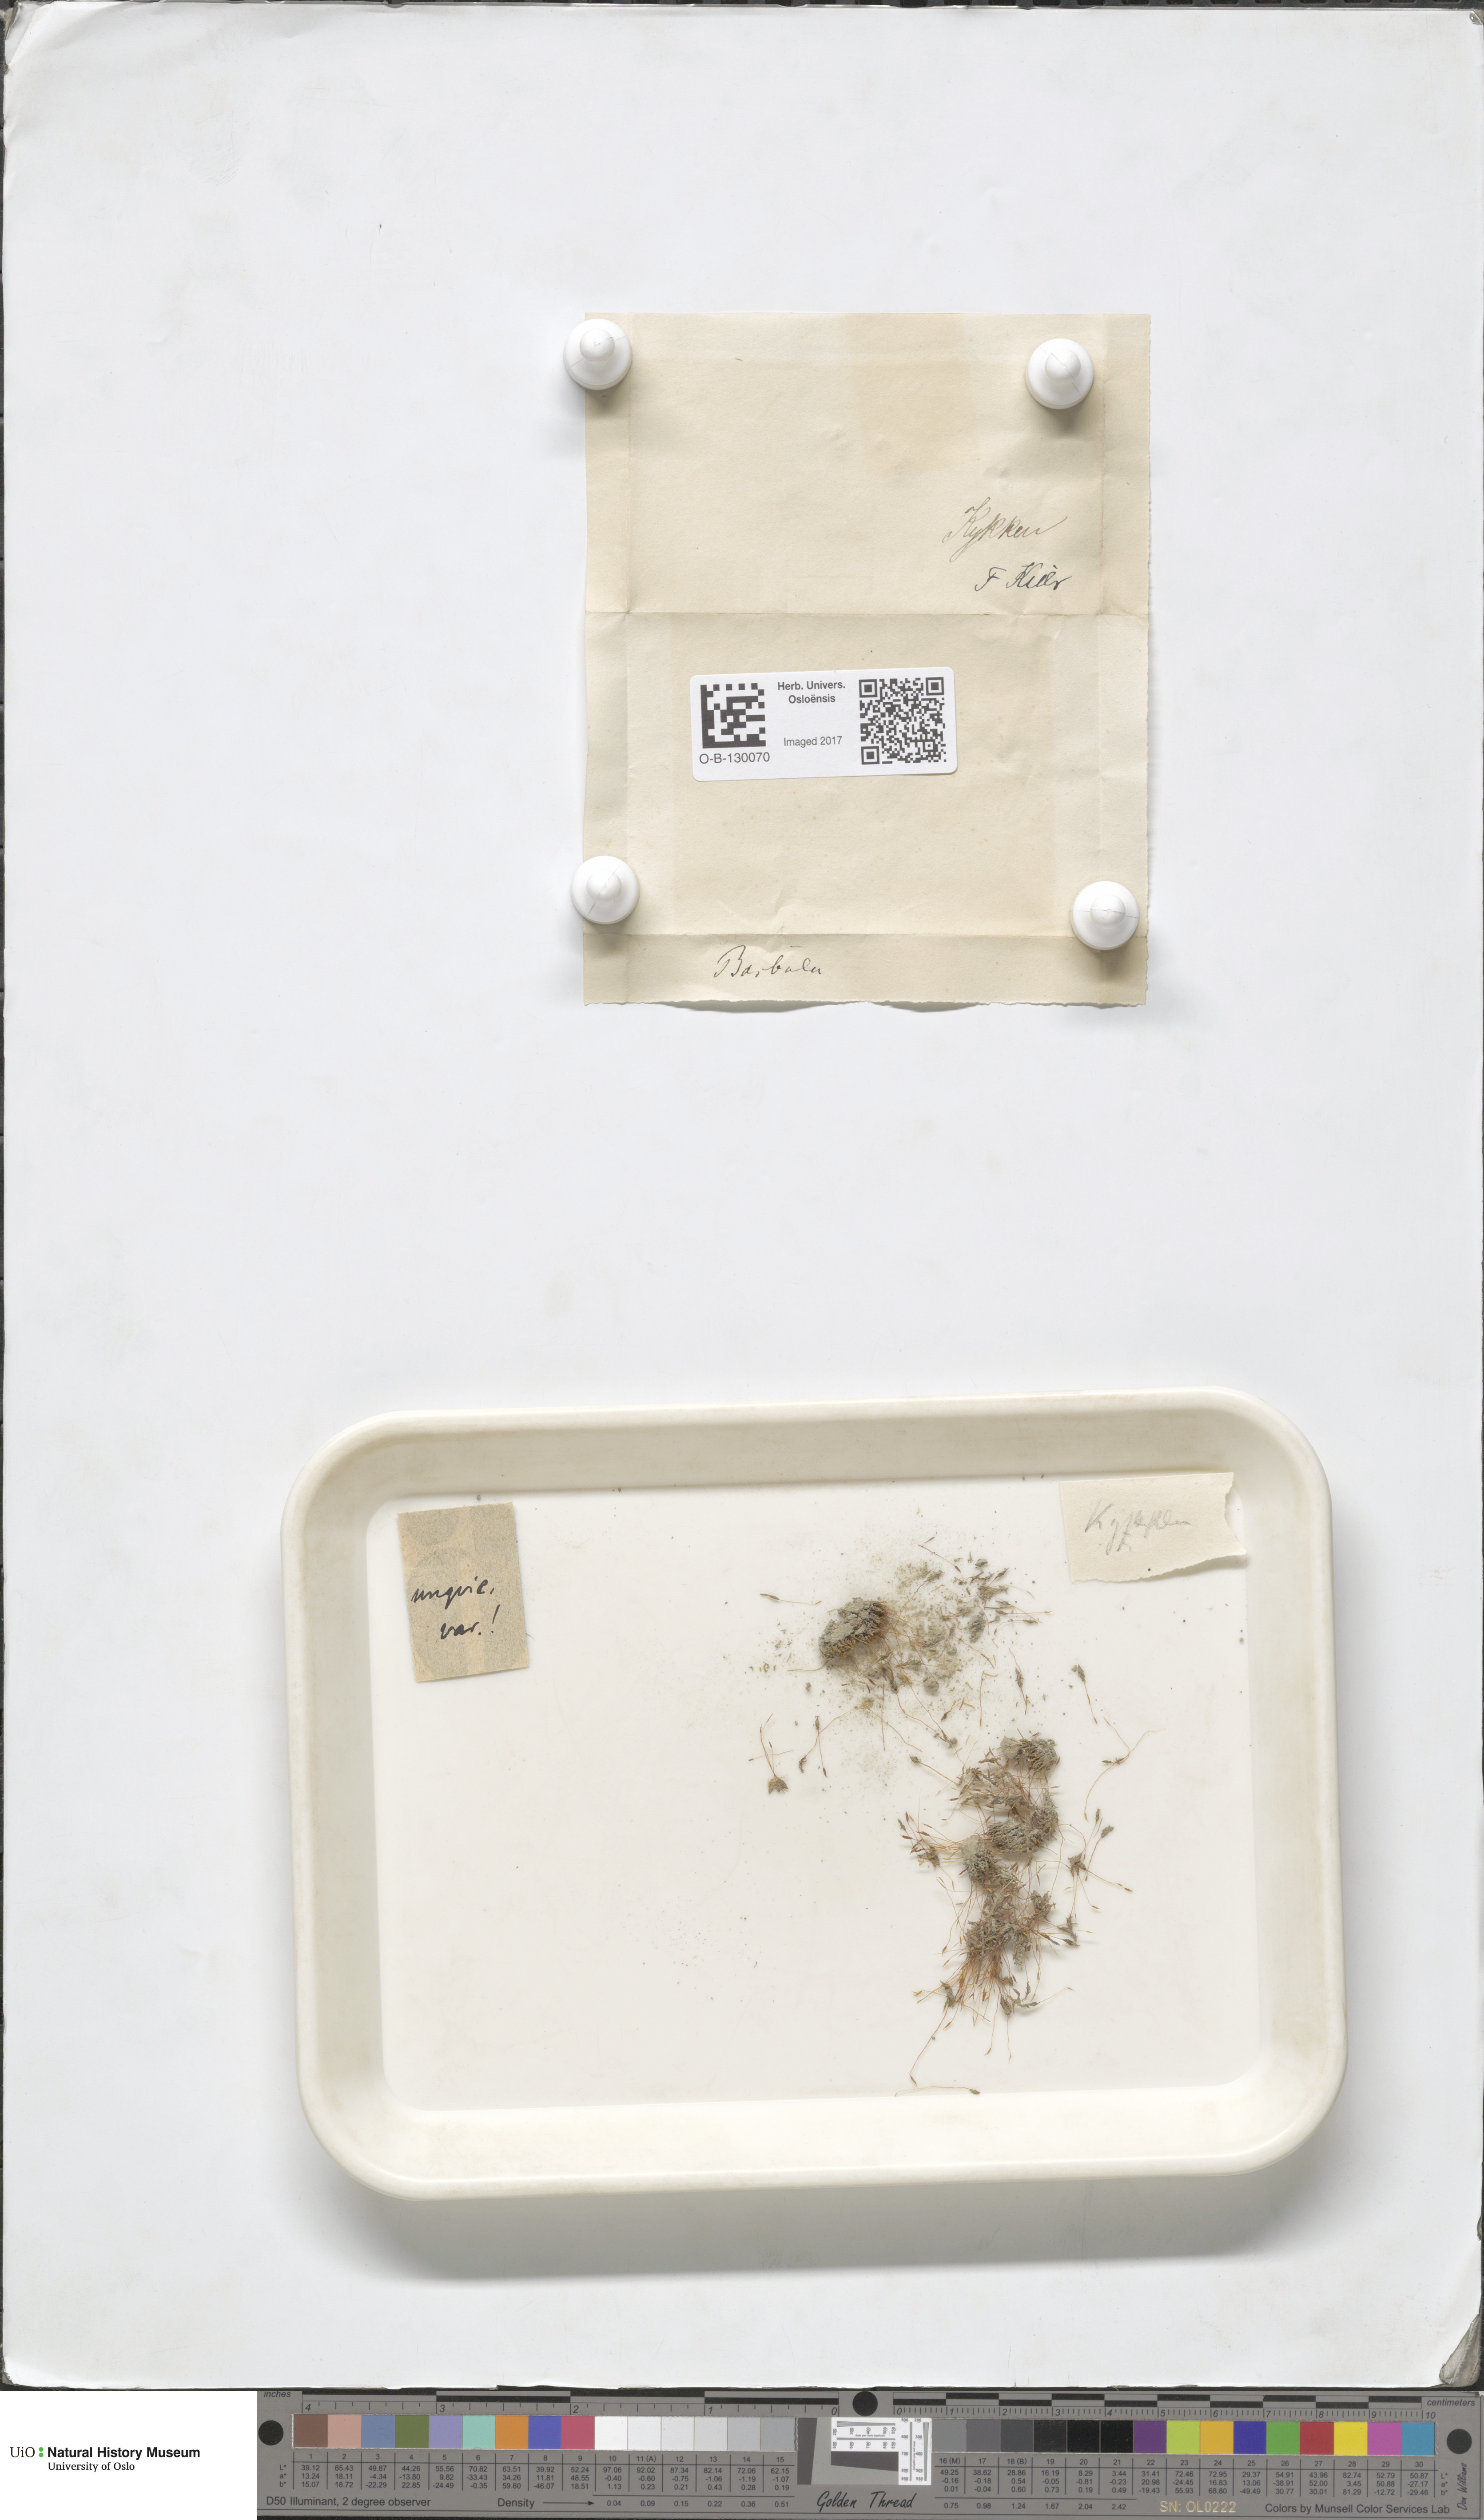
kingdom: Plantae
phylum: Bryophyta
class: Bryopsida
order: Pottiales
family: Pottiaceae
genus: Barbula
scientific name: Barbula unguiculata
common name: Prickly beard moss
